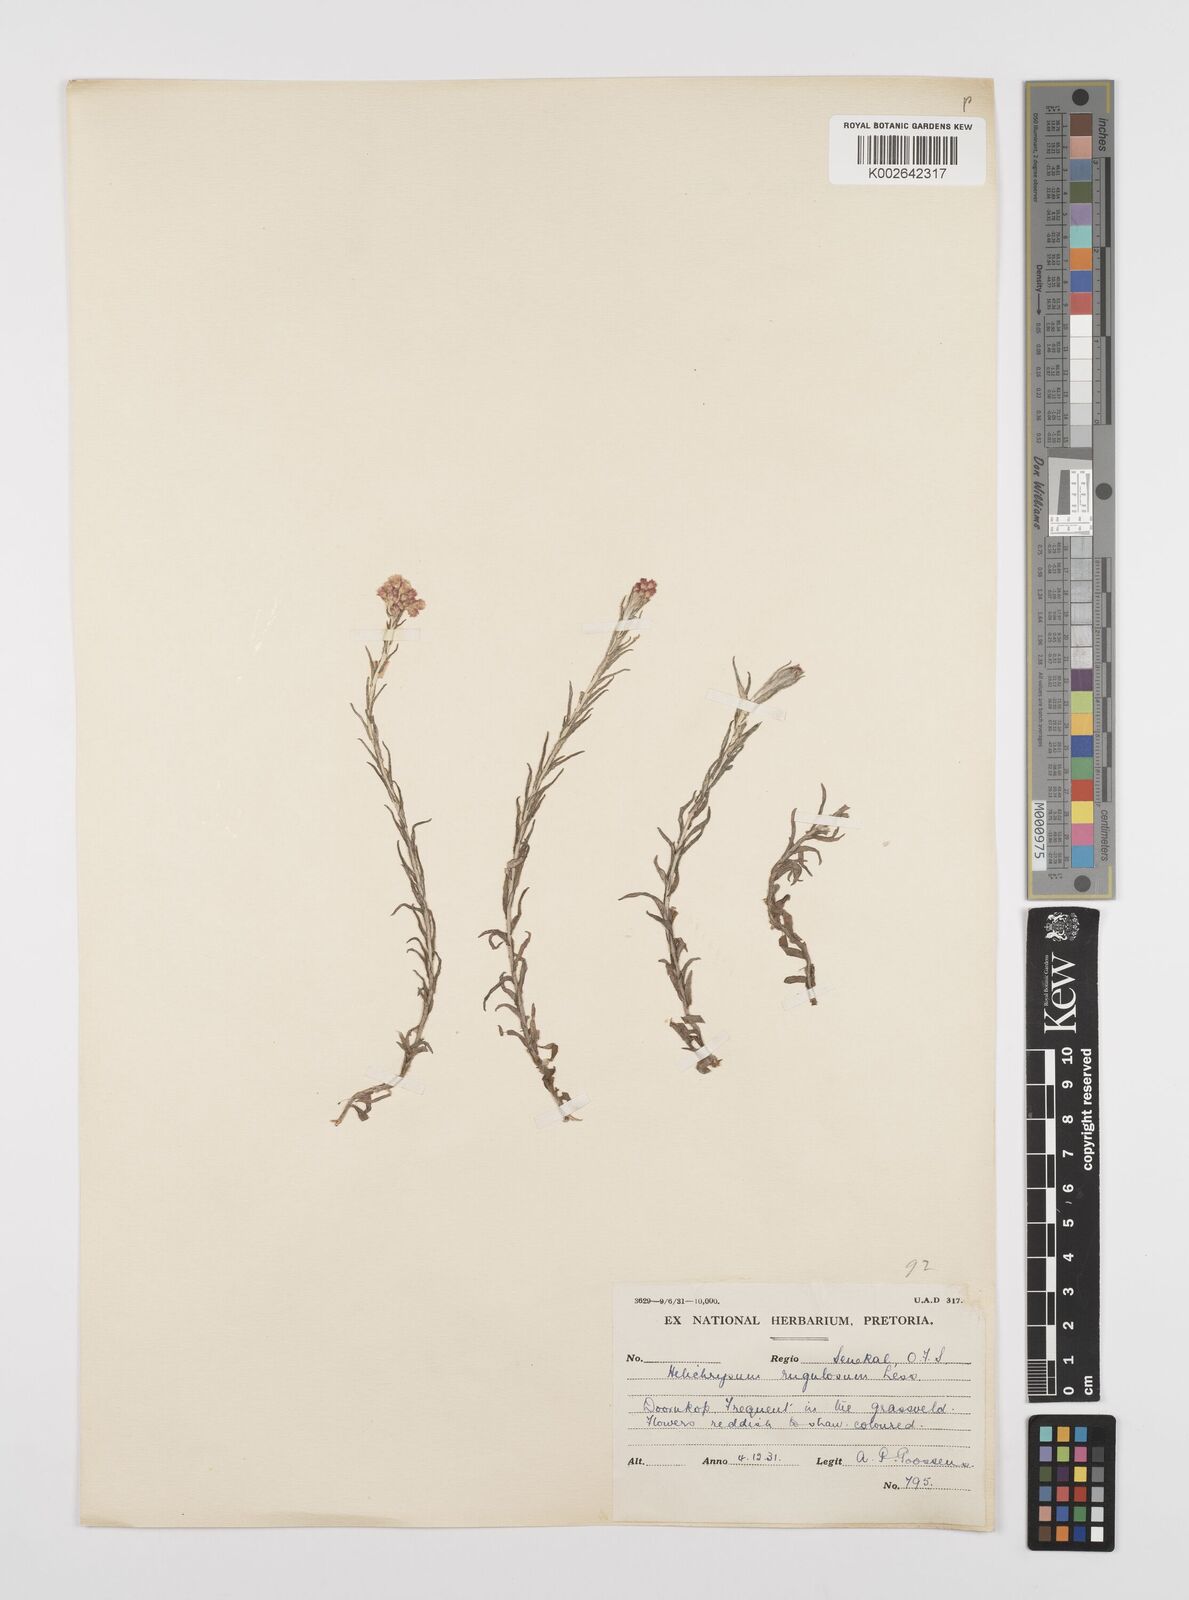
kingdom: Plantae
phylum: Tracheophyta
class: Magnoliopsida
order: Asterales
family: Asteraceae
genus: Helichrysum
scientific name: Helichrysum rugulosum
